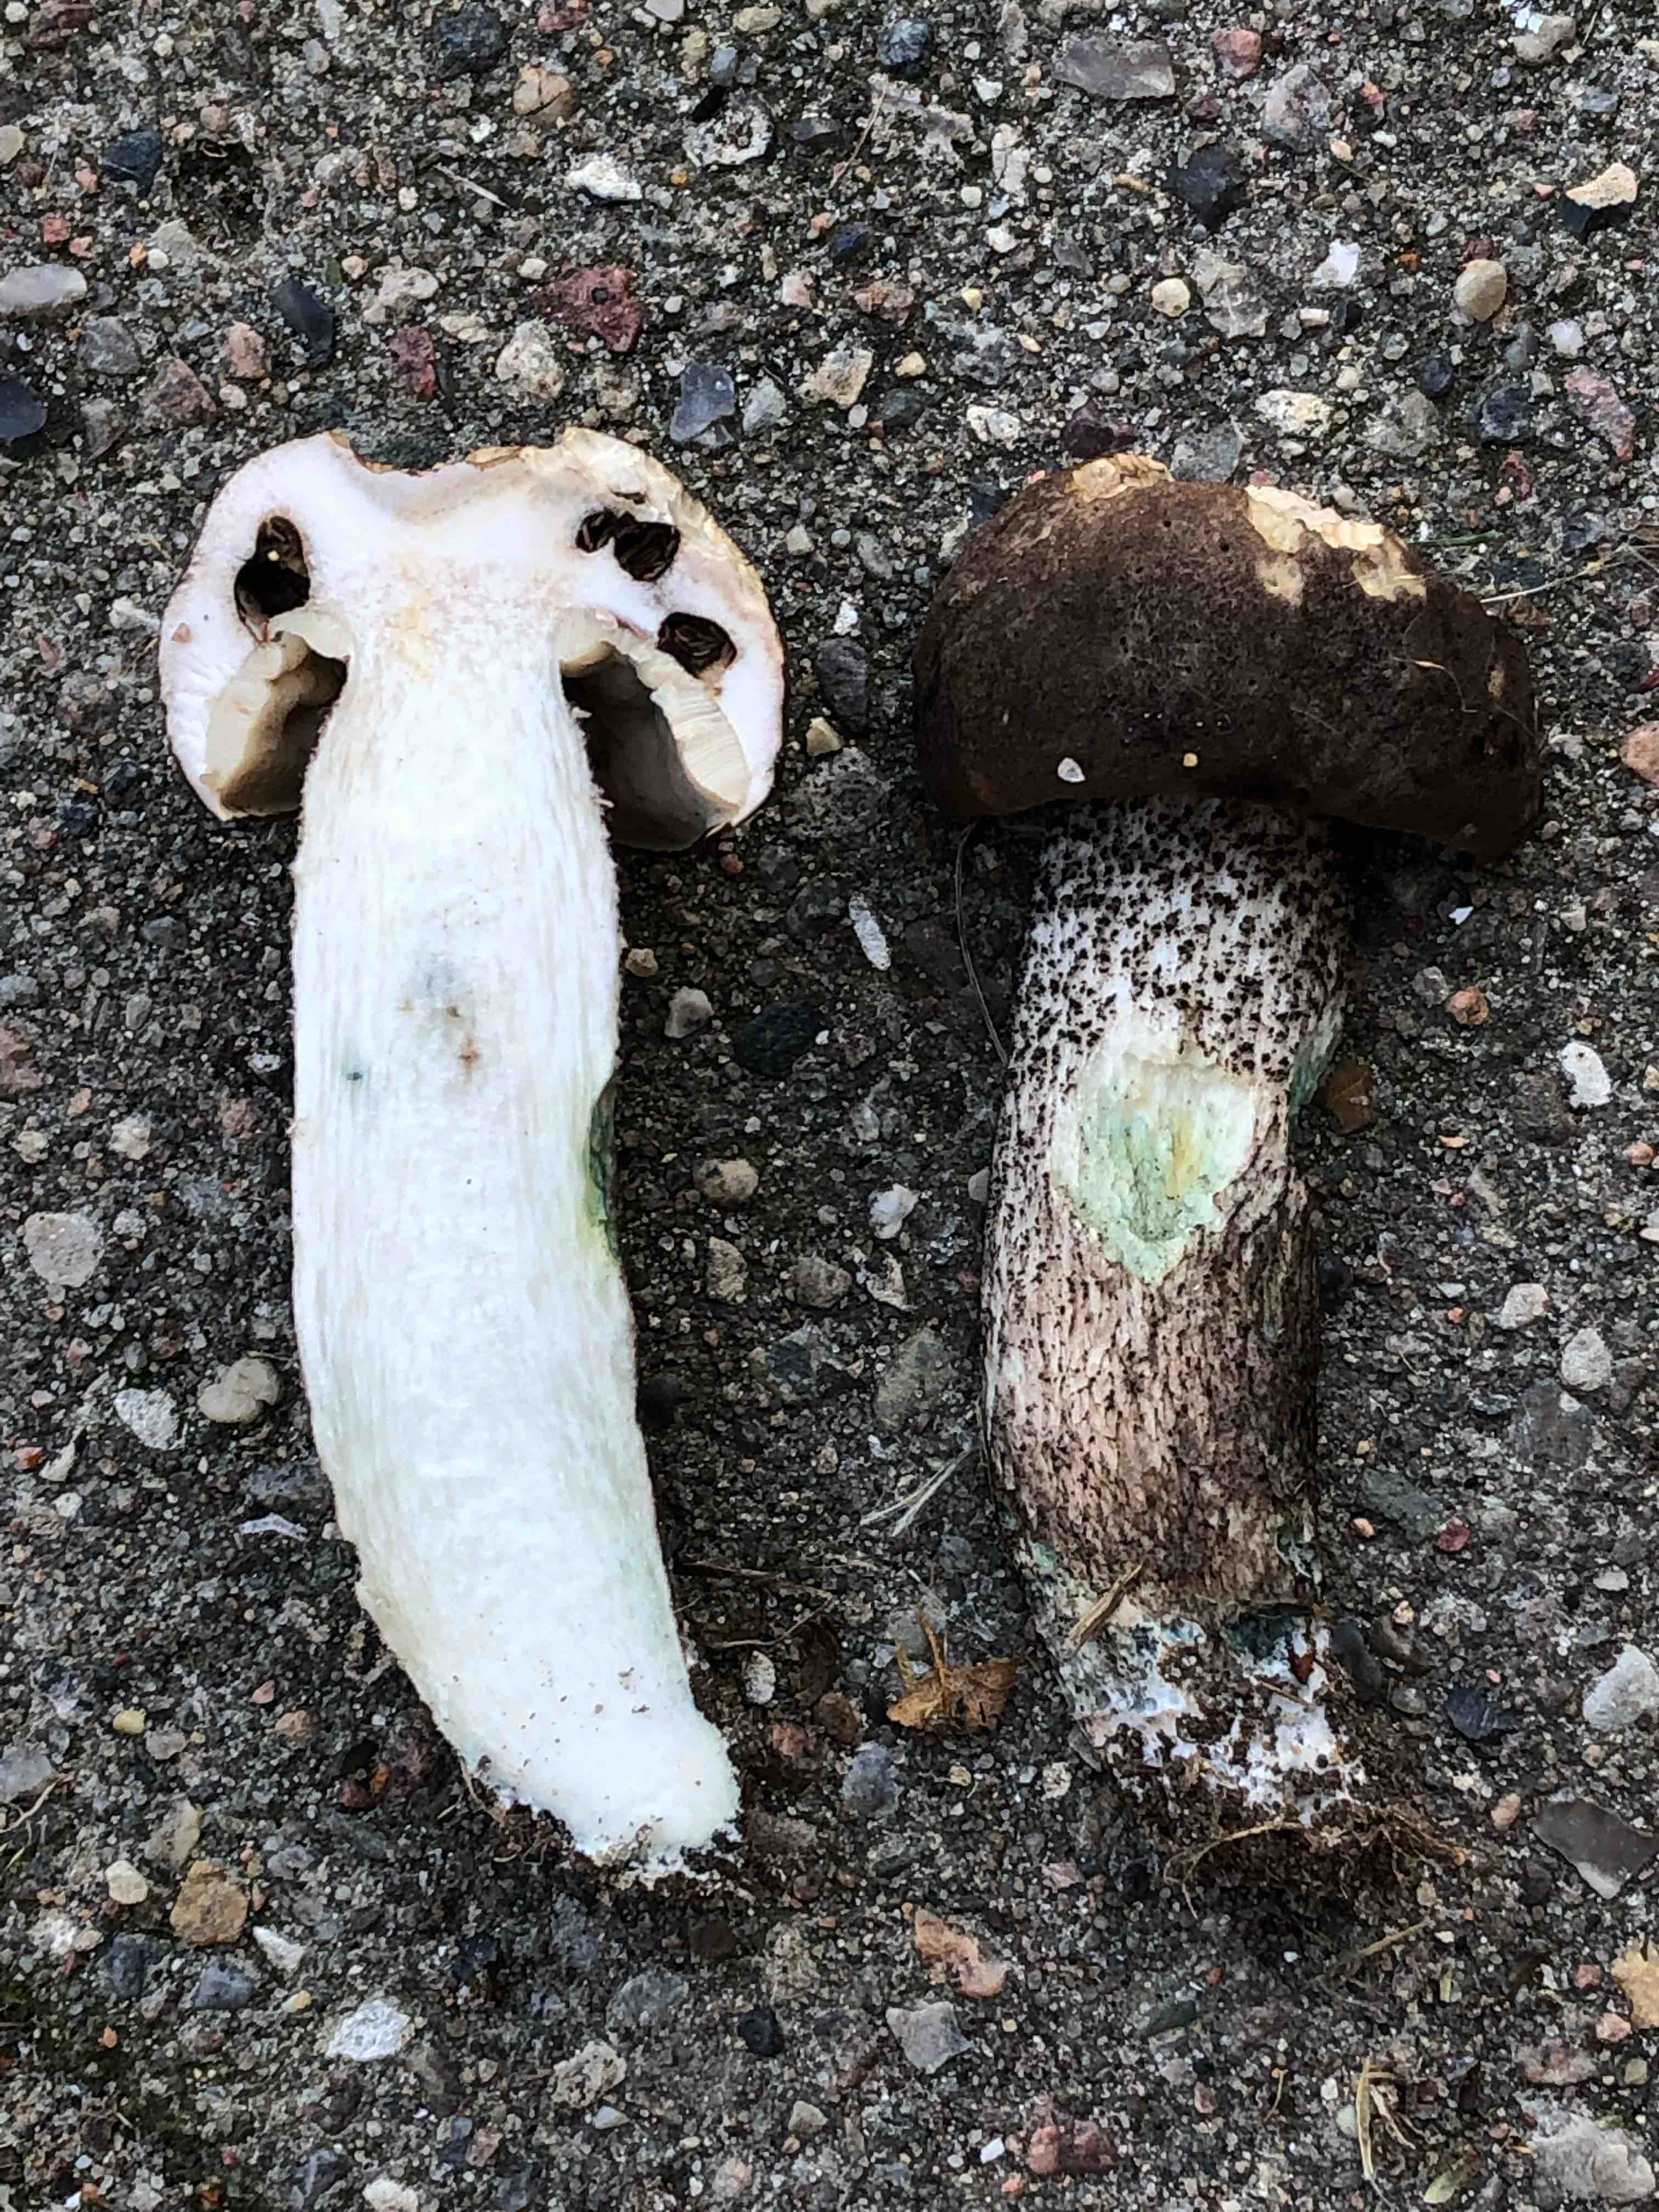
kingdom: Fungi
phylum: Basidiomycota
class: Agaricomycetes
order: Boletales
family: Boletaceae
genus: Leccinum
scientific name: Leccinum variicolor
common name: flammet skælrørhat
